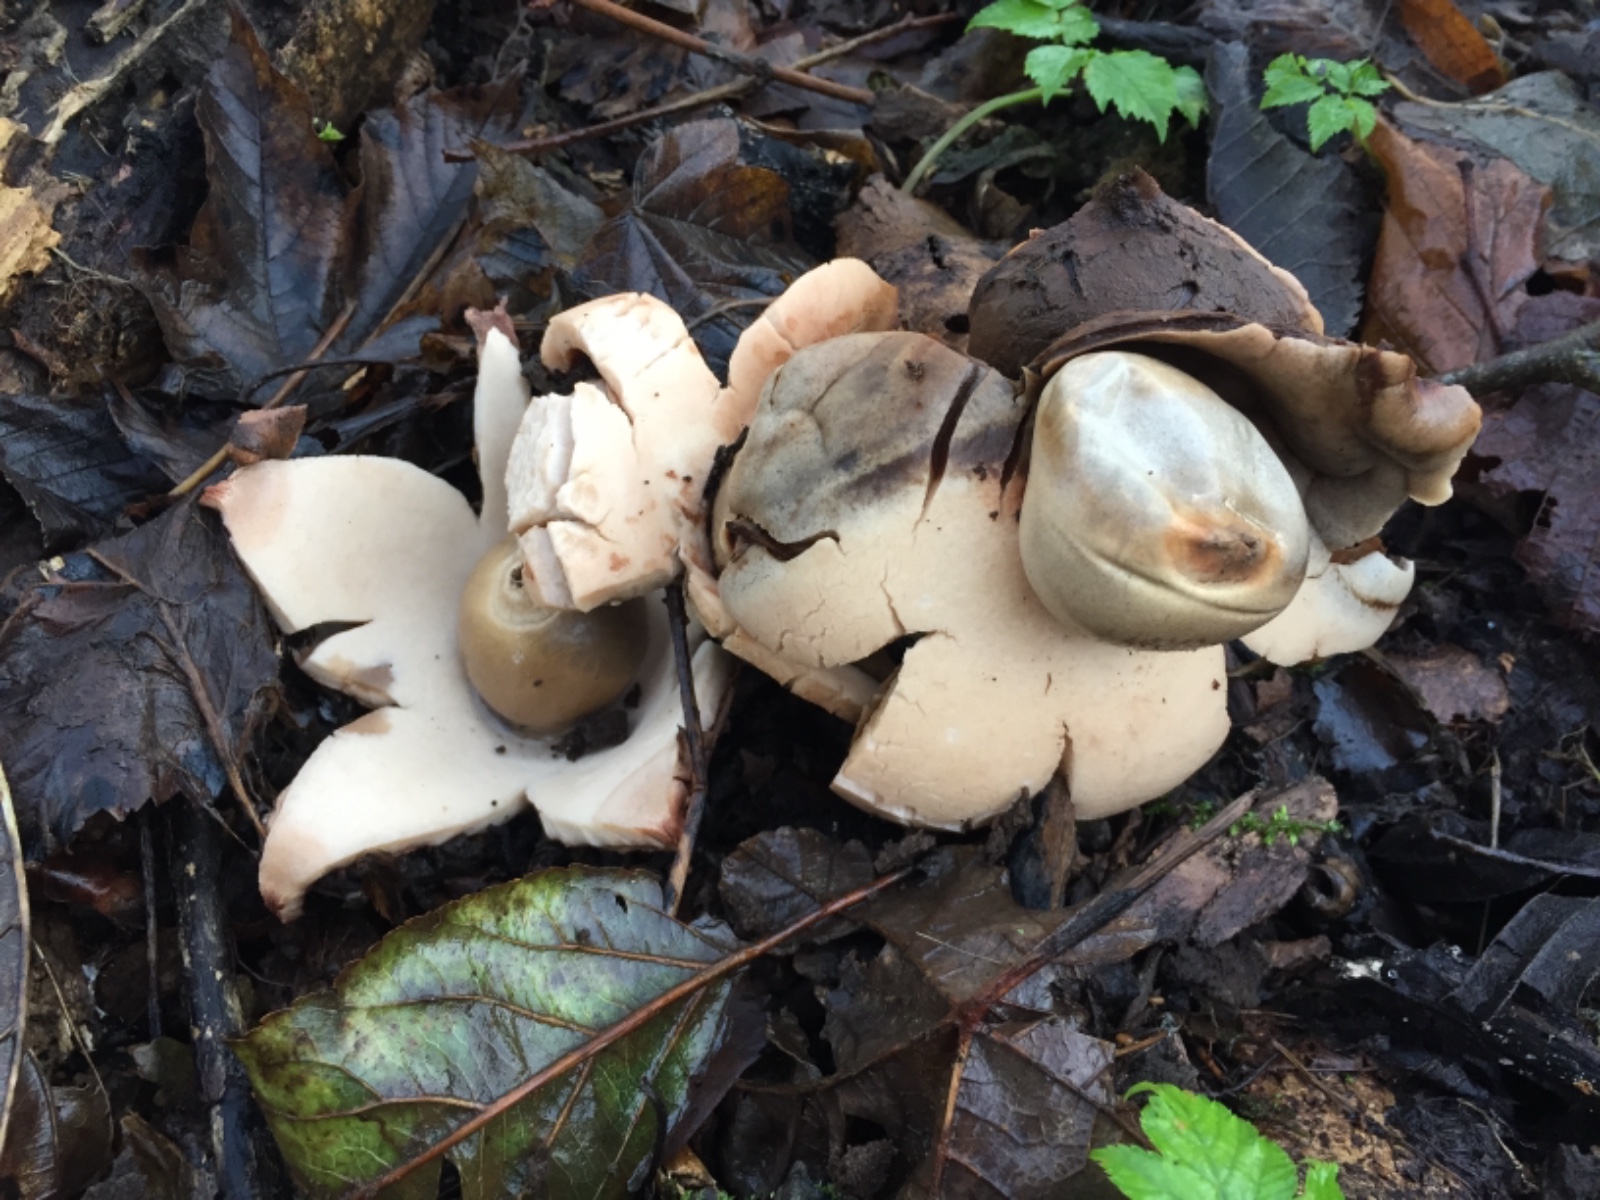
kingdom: Fungi
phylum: Basidiomycota
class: Agaricomycetes
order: Geastrales
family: Geastraceae
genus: Geastrum
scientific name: Geastrum michelianum
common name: kødet stjernebold
